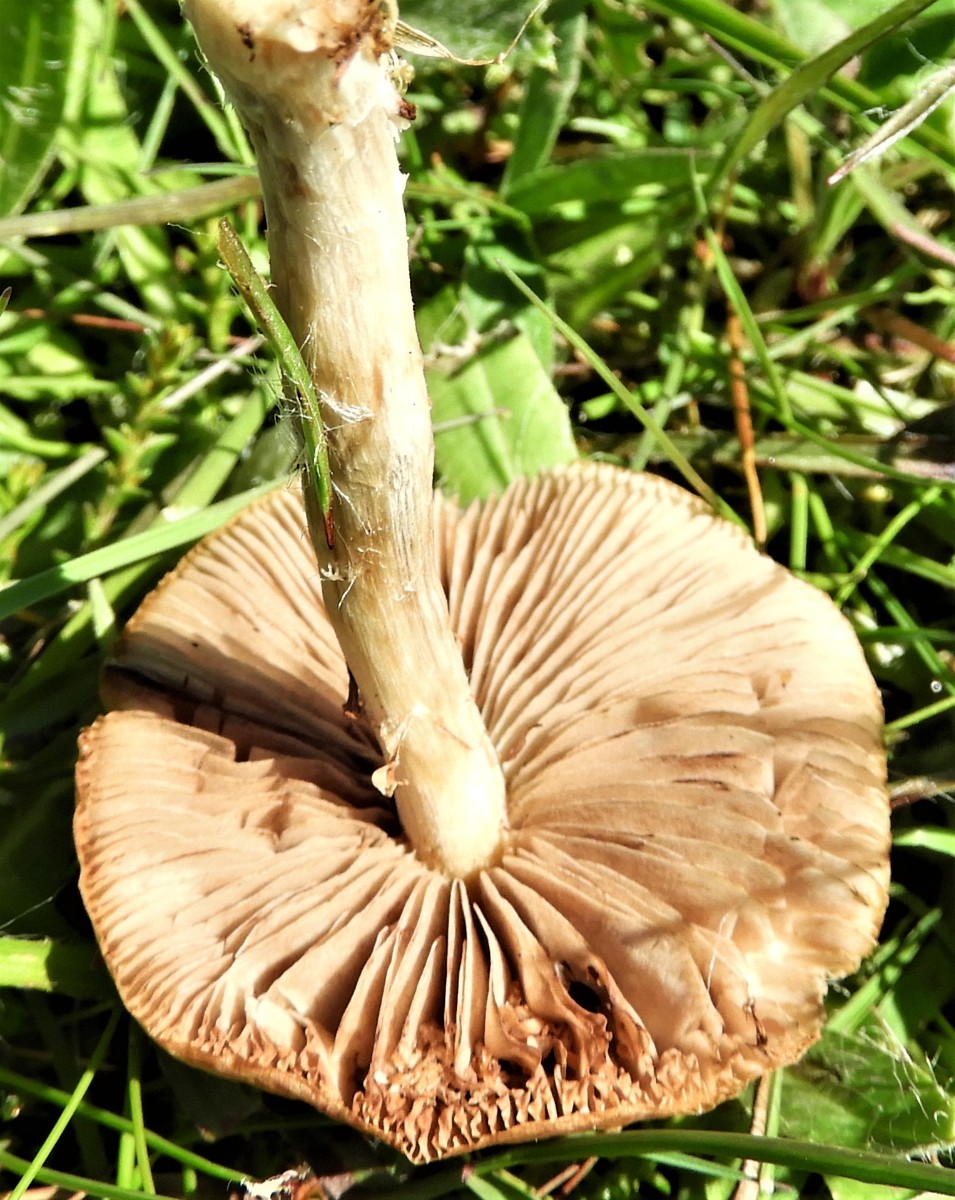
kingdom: Fungi
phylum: Basidiomycota
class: Agaricomycetes
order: Agaricales
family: Strophariaceae
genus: Agrocybe
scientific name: Agrocybe praecox
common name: tidlig agerhat
